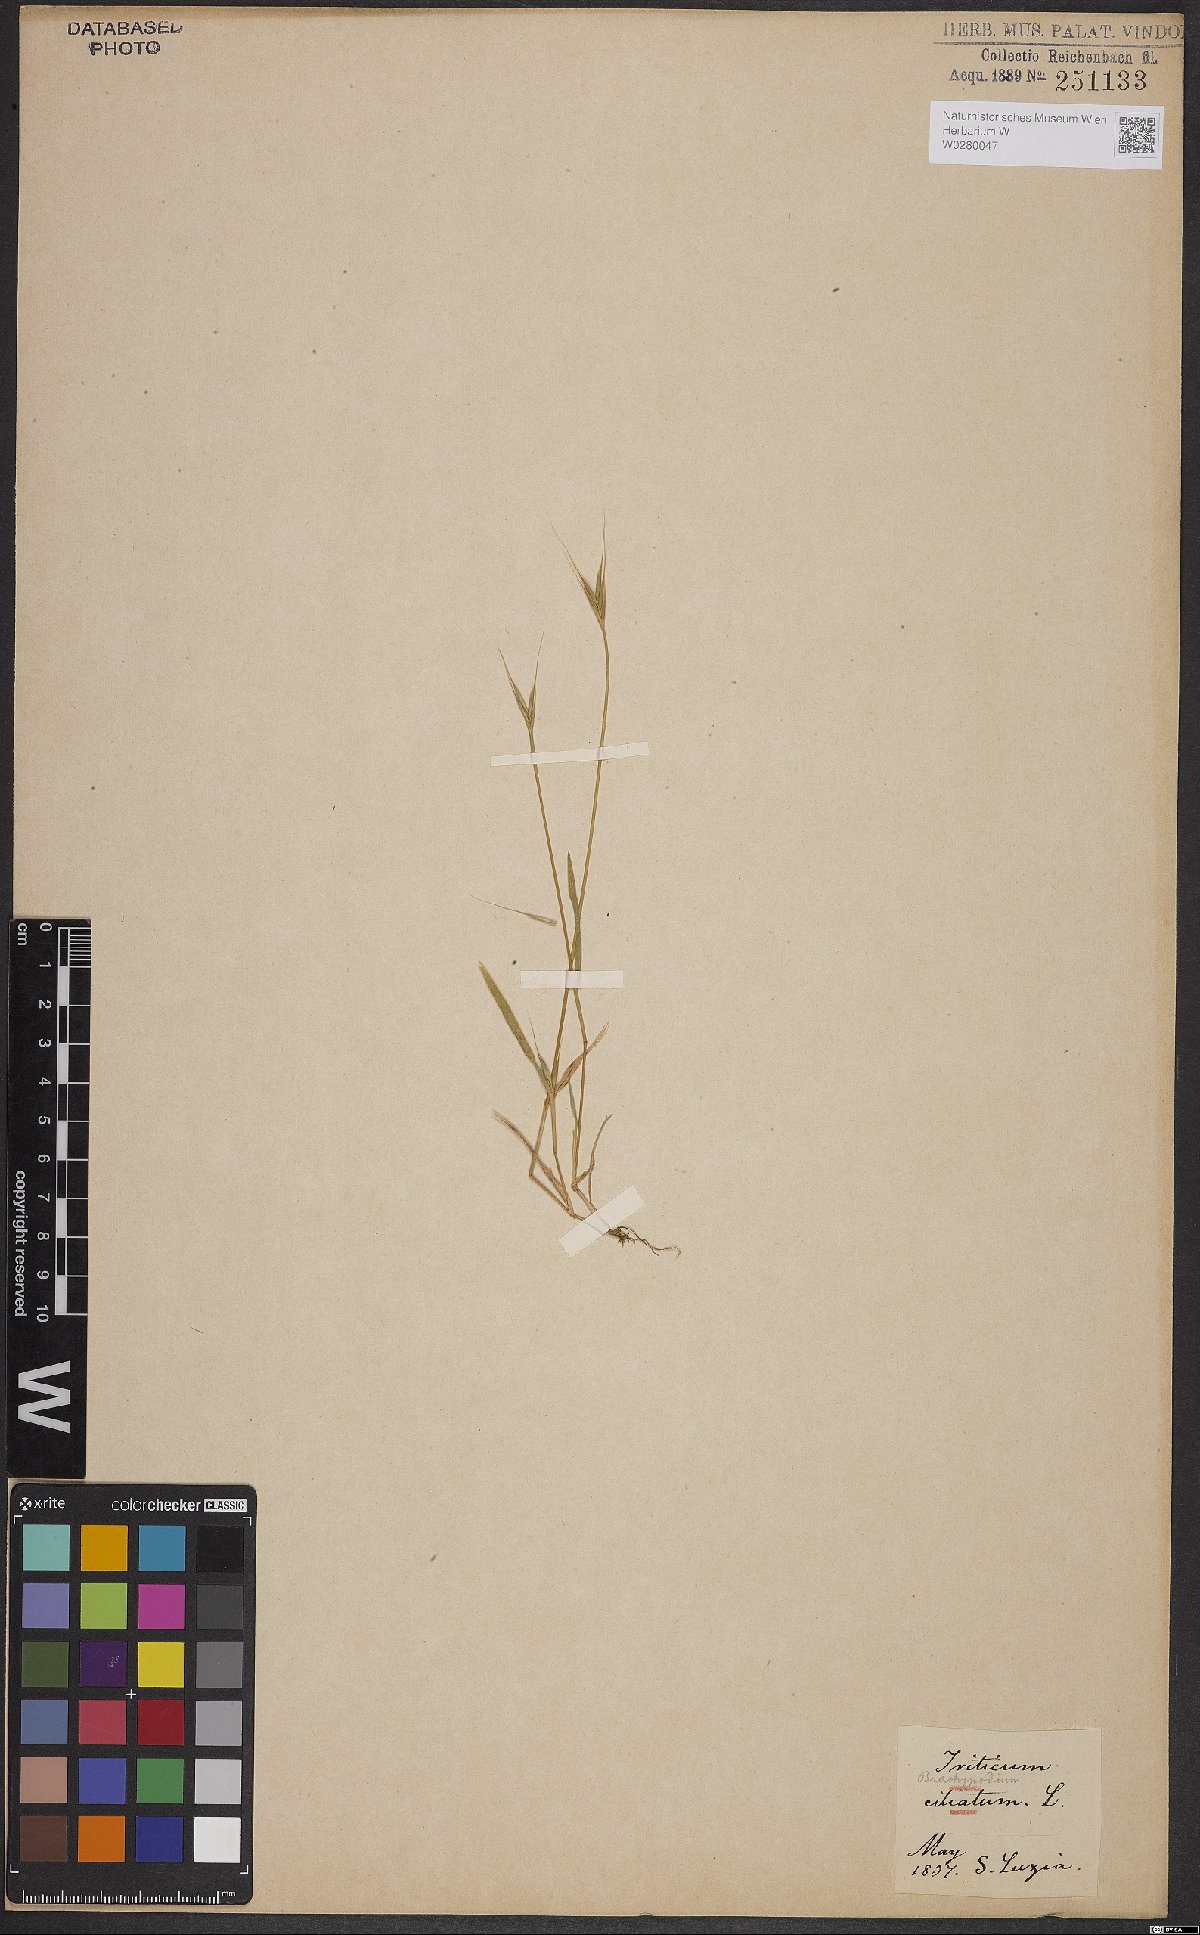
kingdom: Plantae
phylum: Tracheophyta
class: Liliopsida
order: Poales
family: Poaceae
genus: Brachypodium
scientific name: Brachypodium distachyon
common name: Stiff brome
